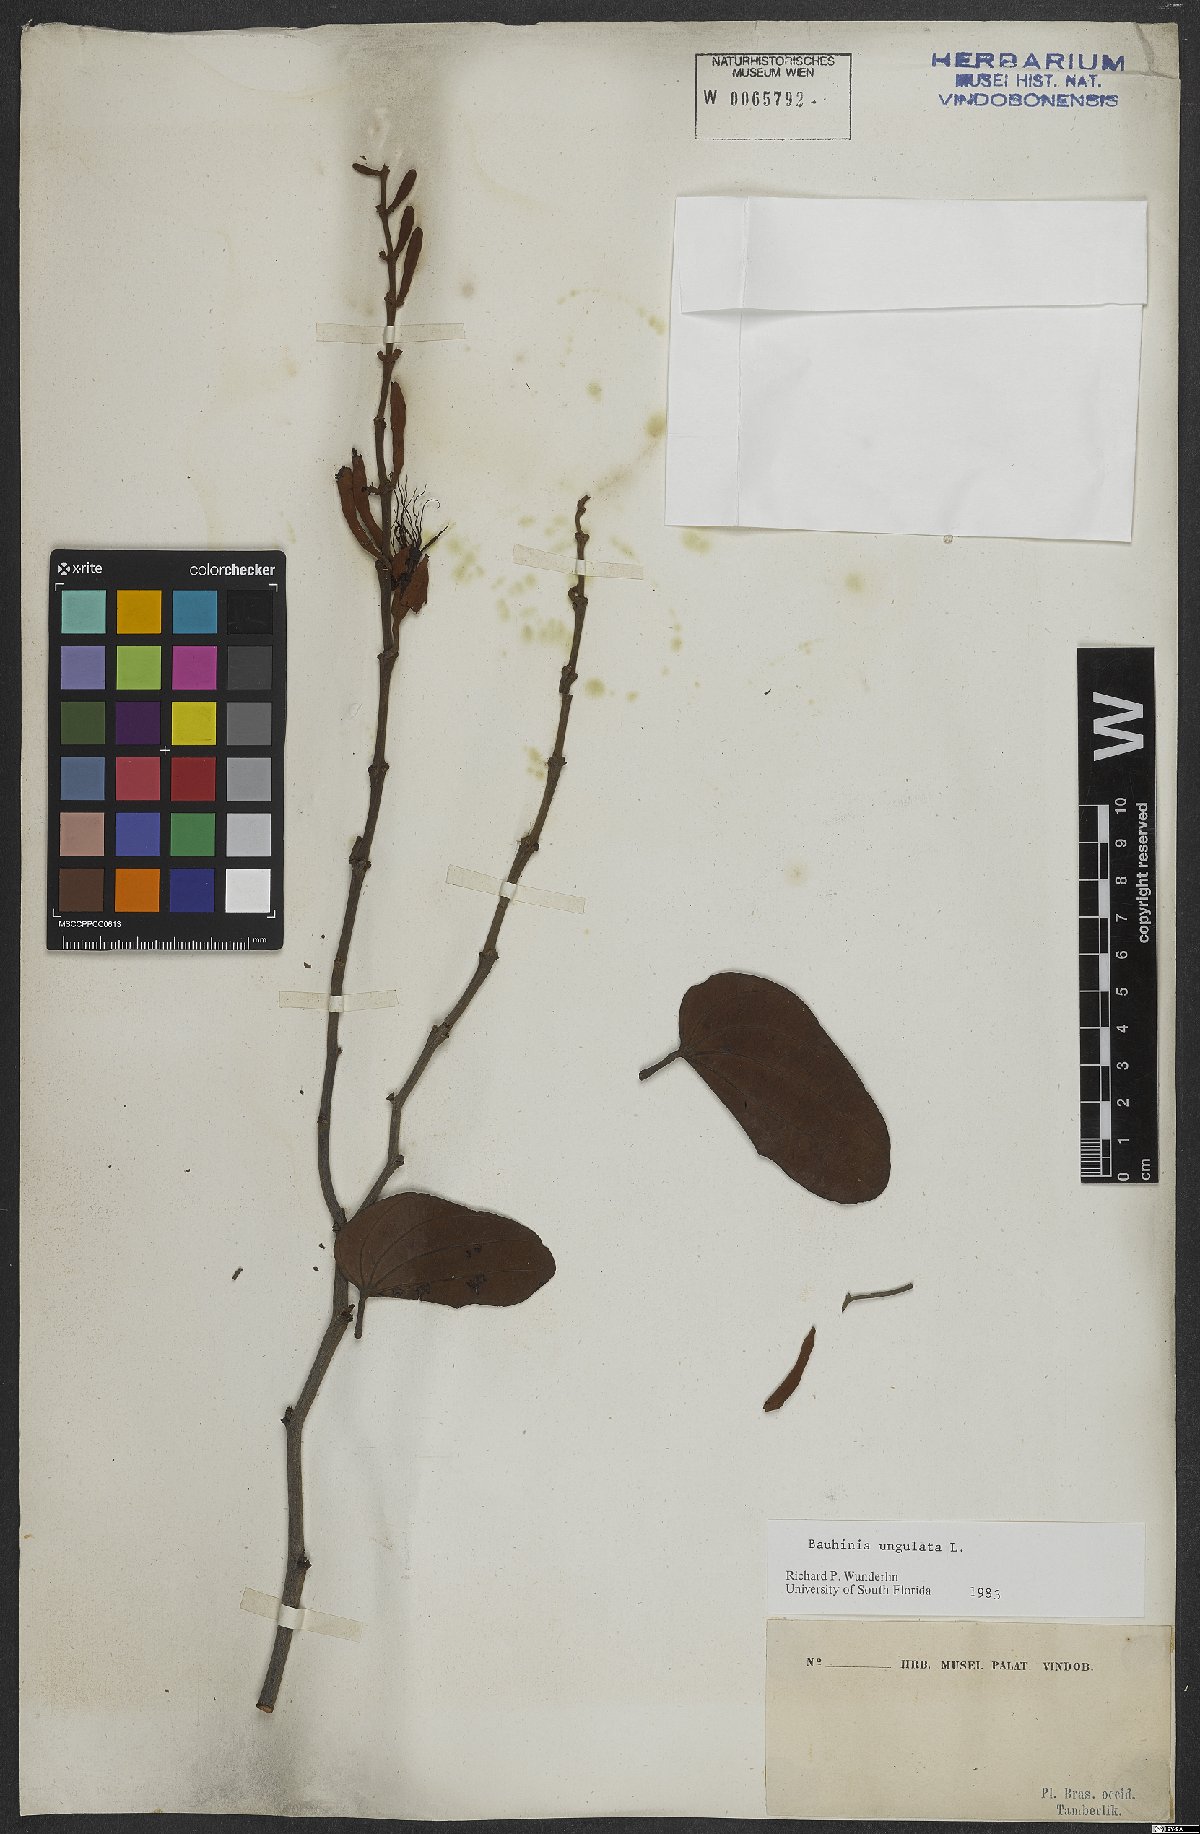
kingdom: Plantae
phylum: Tracheophyta
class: Magnoliopsida
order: Fabales
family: Fabaceae
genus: Bauhinia
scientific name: Bauhinia ungulata
